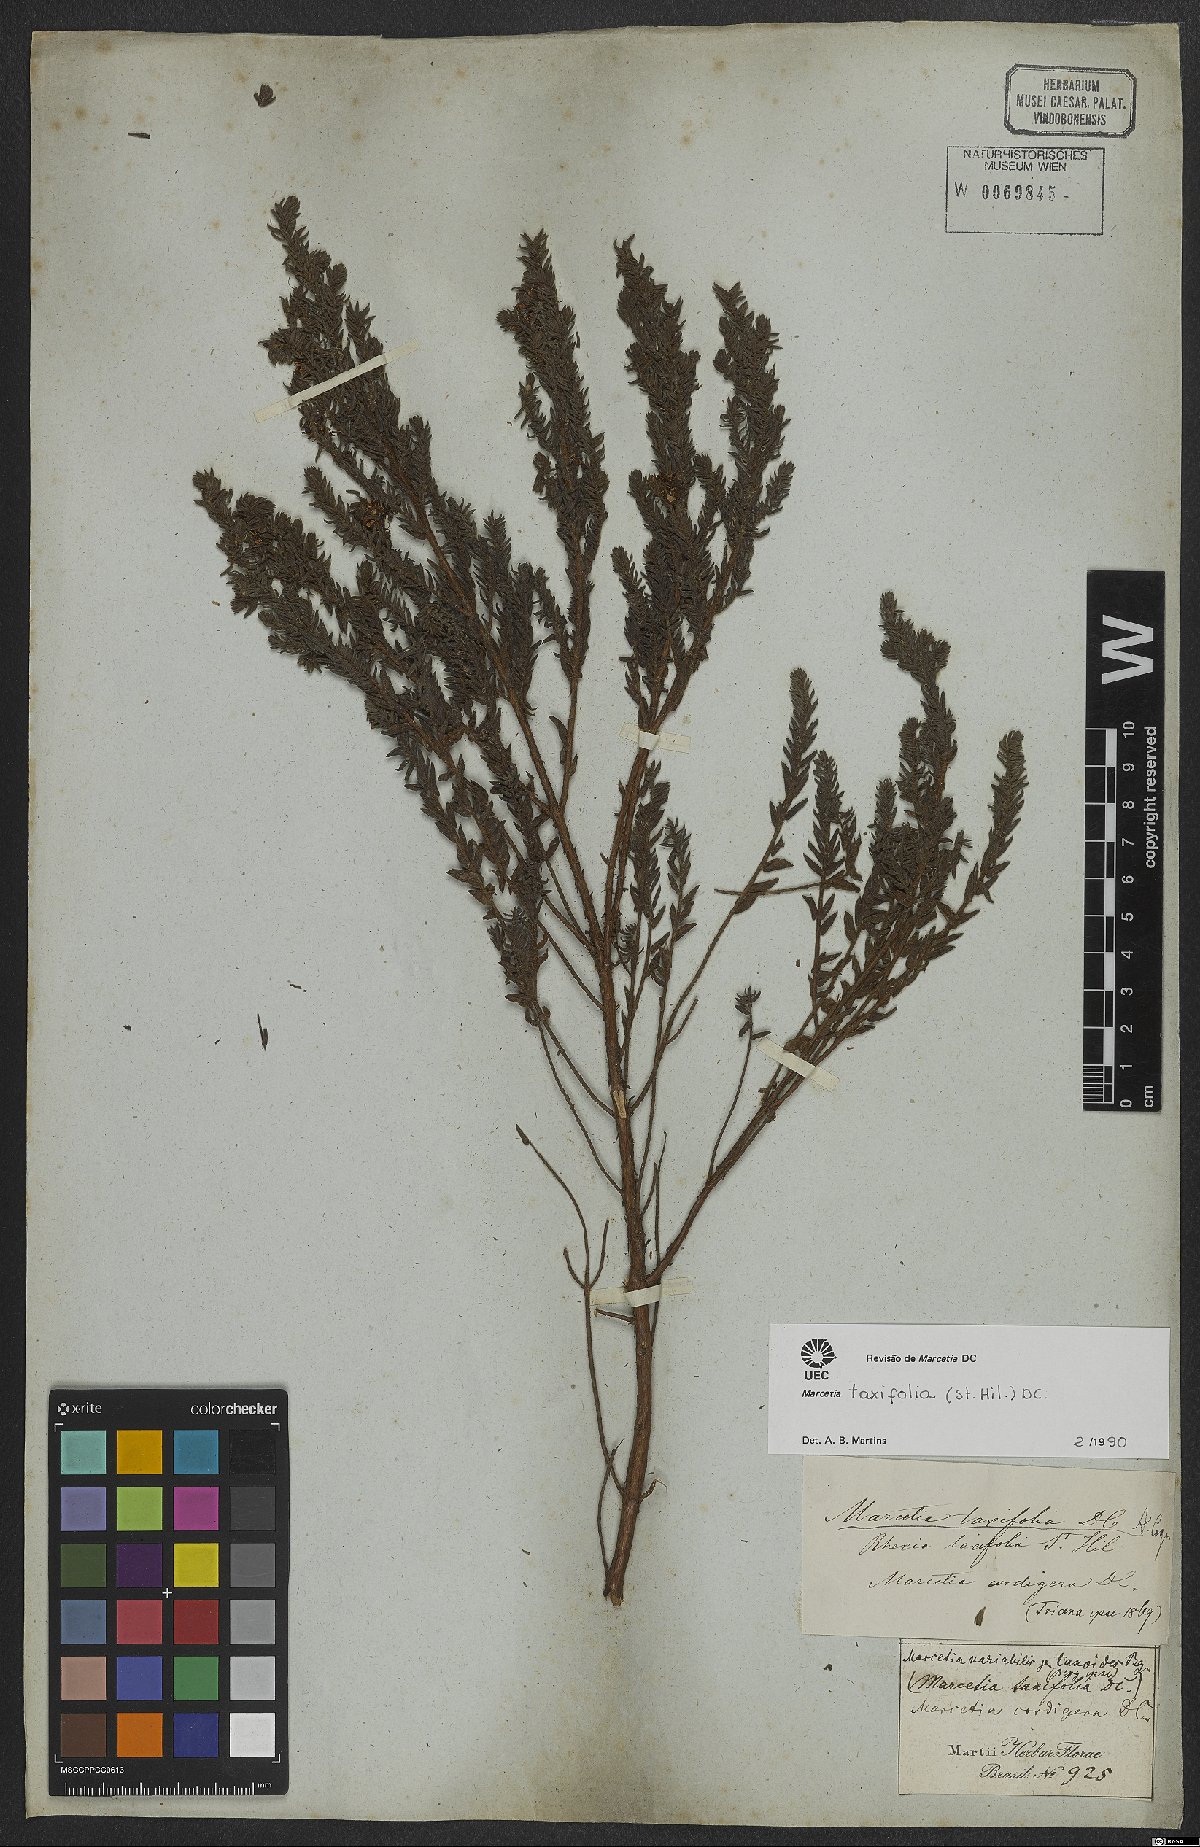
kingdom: Plantae
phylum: Tracheophyta
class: Magnoliopsida
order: Myrtales
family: Melastomataceae
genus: Marcetia
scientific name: Marcetia taxifolia
